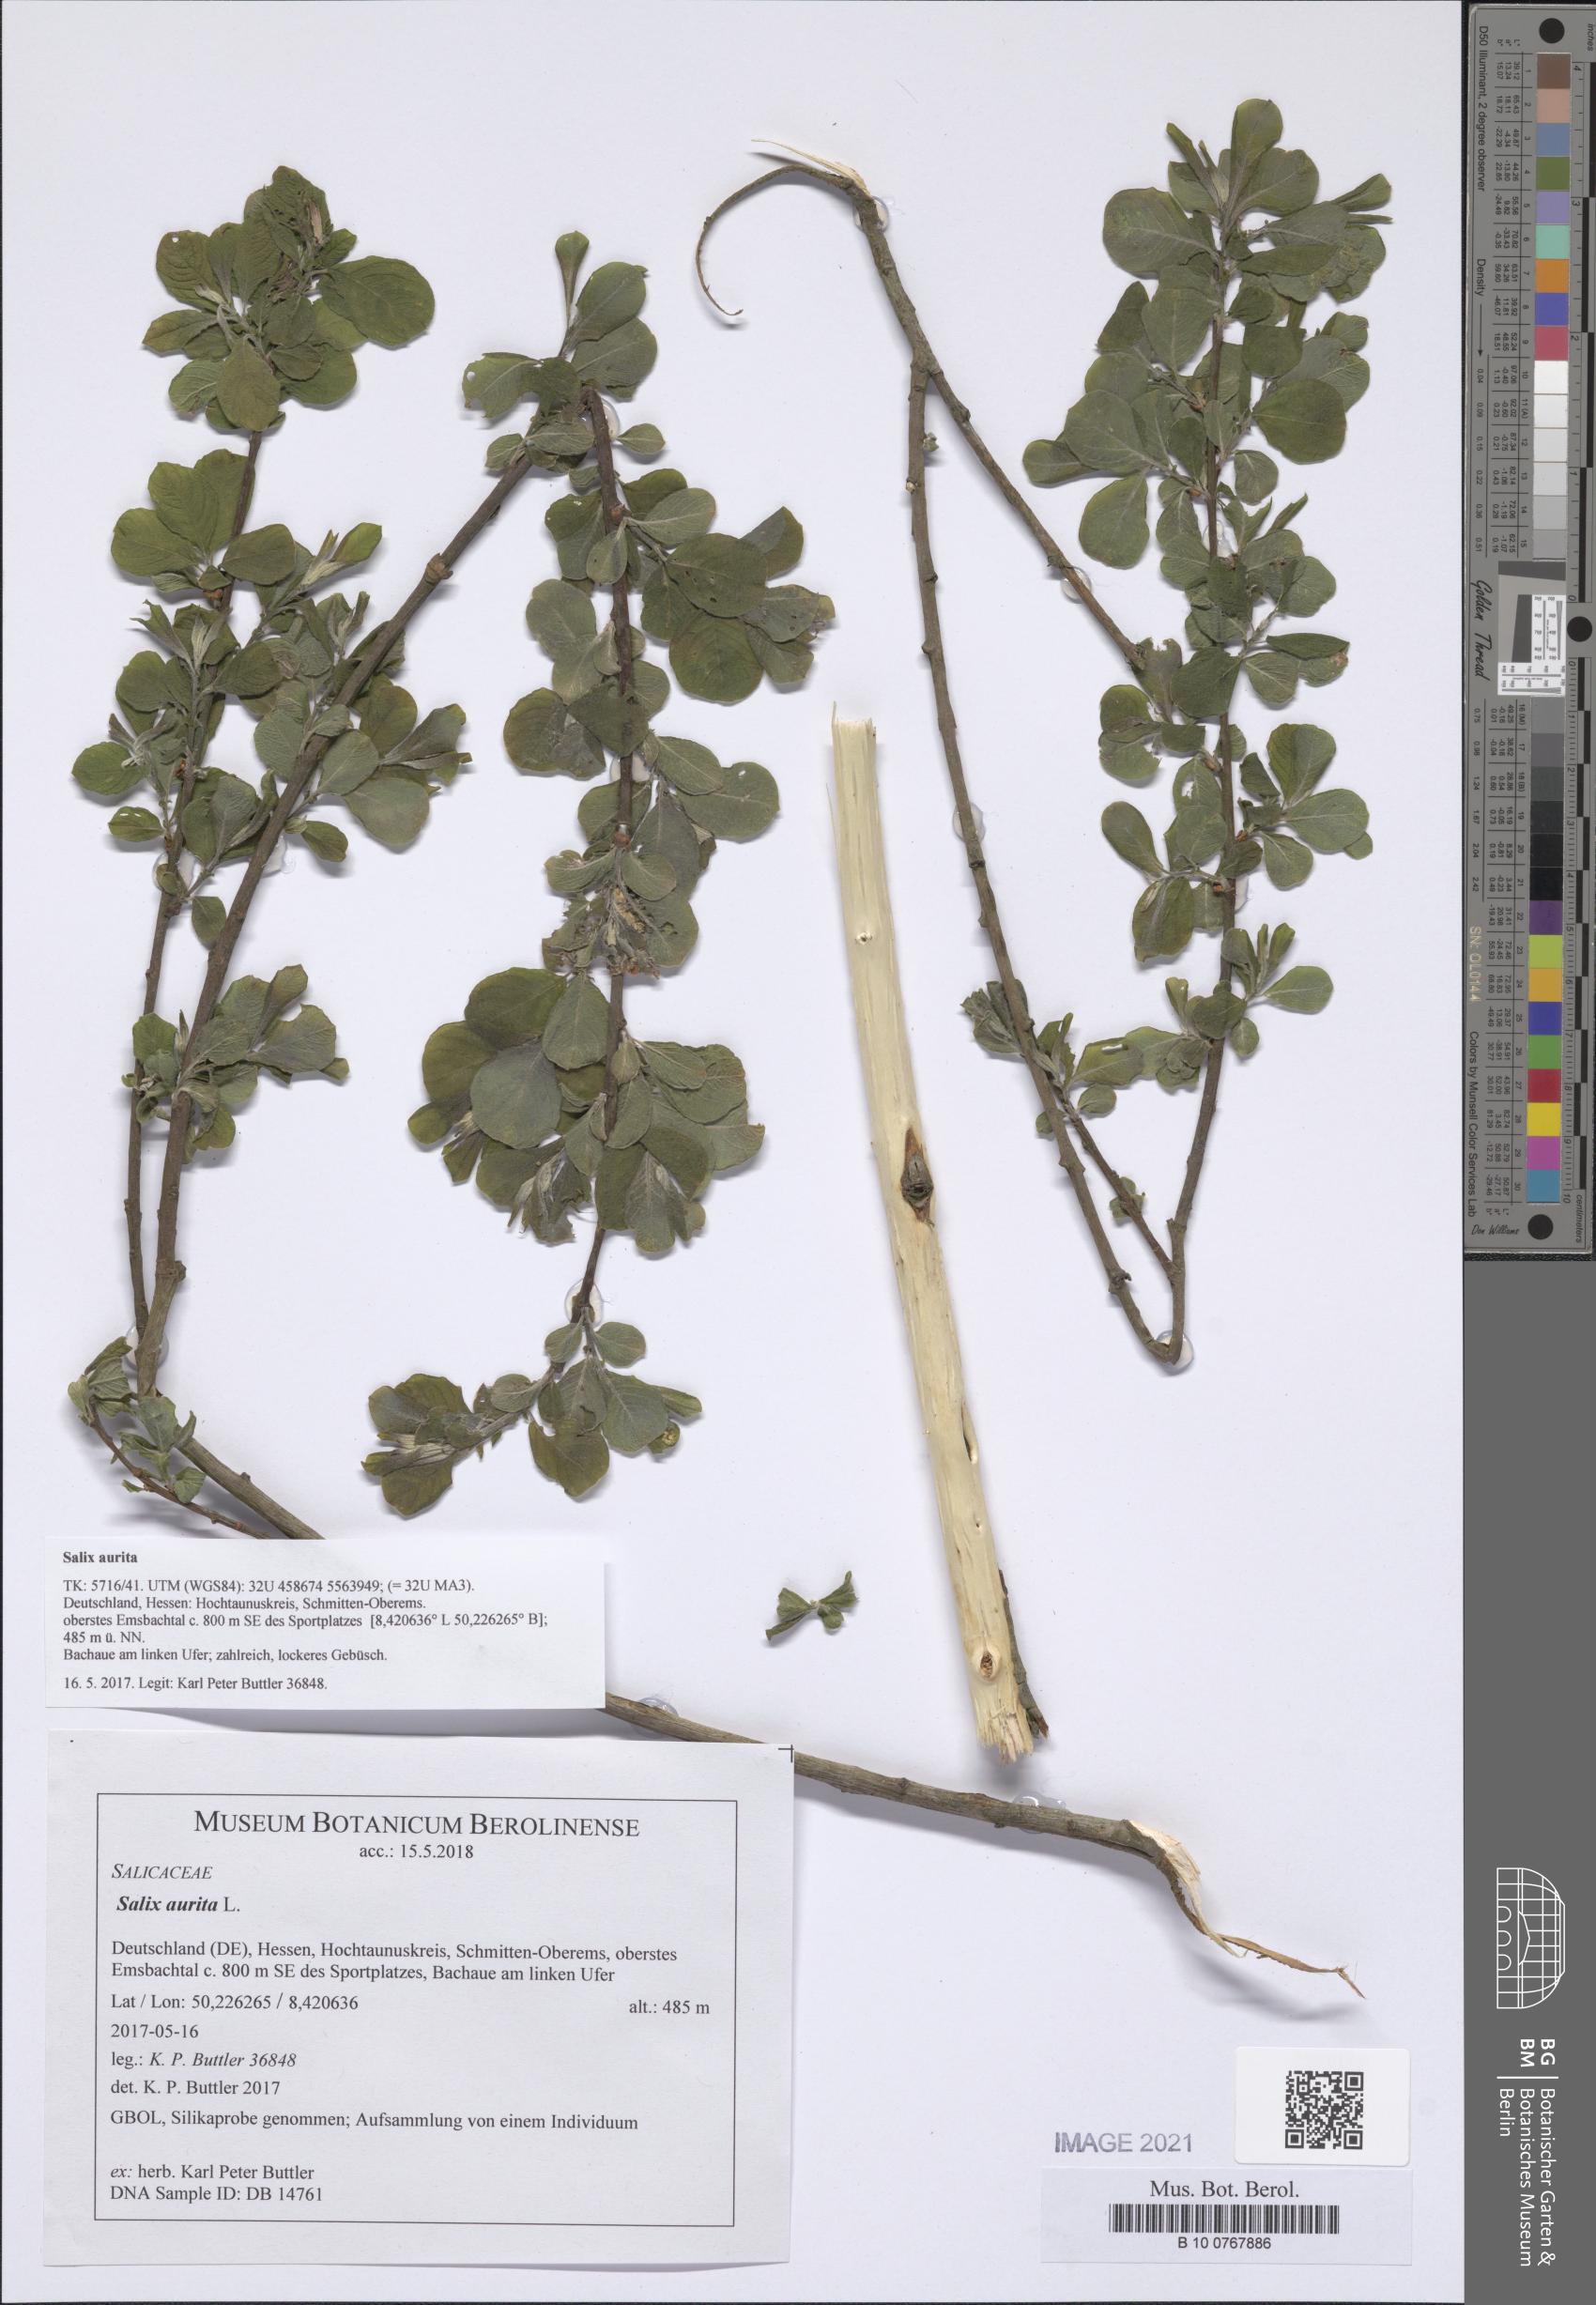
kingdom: Plantae
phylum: Tracheophyta
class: Magnoliopsida
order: Malpighiales
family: Salicaceae
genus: Salix
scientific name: Salix aurita
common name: Eared willow
